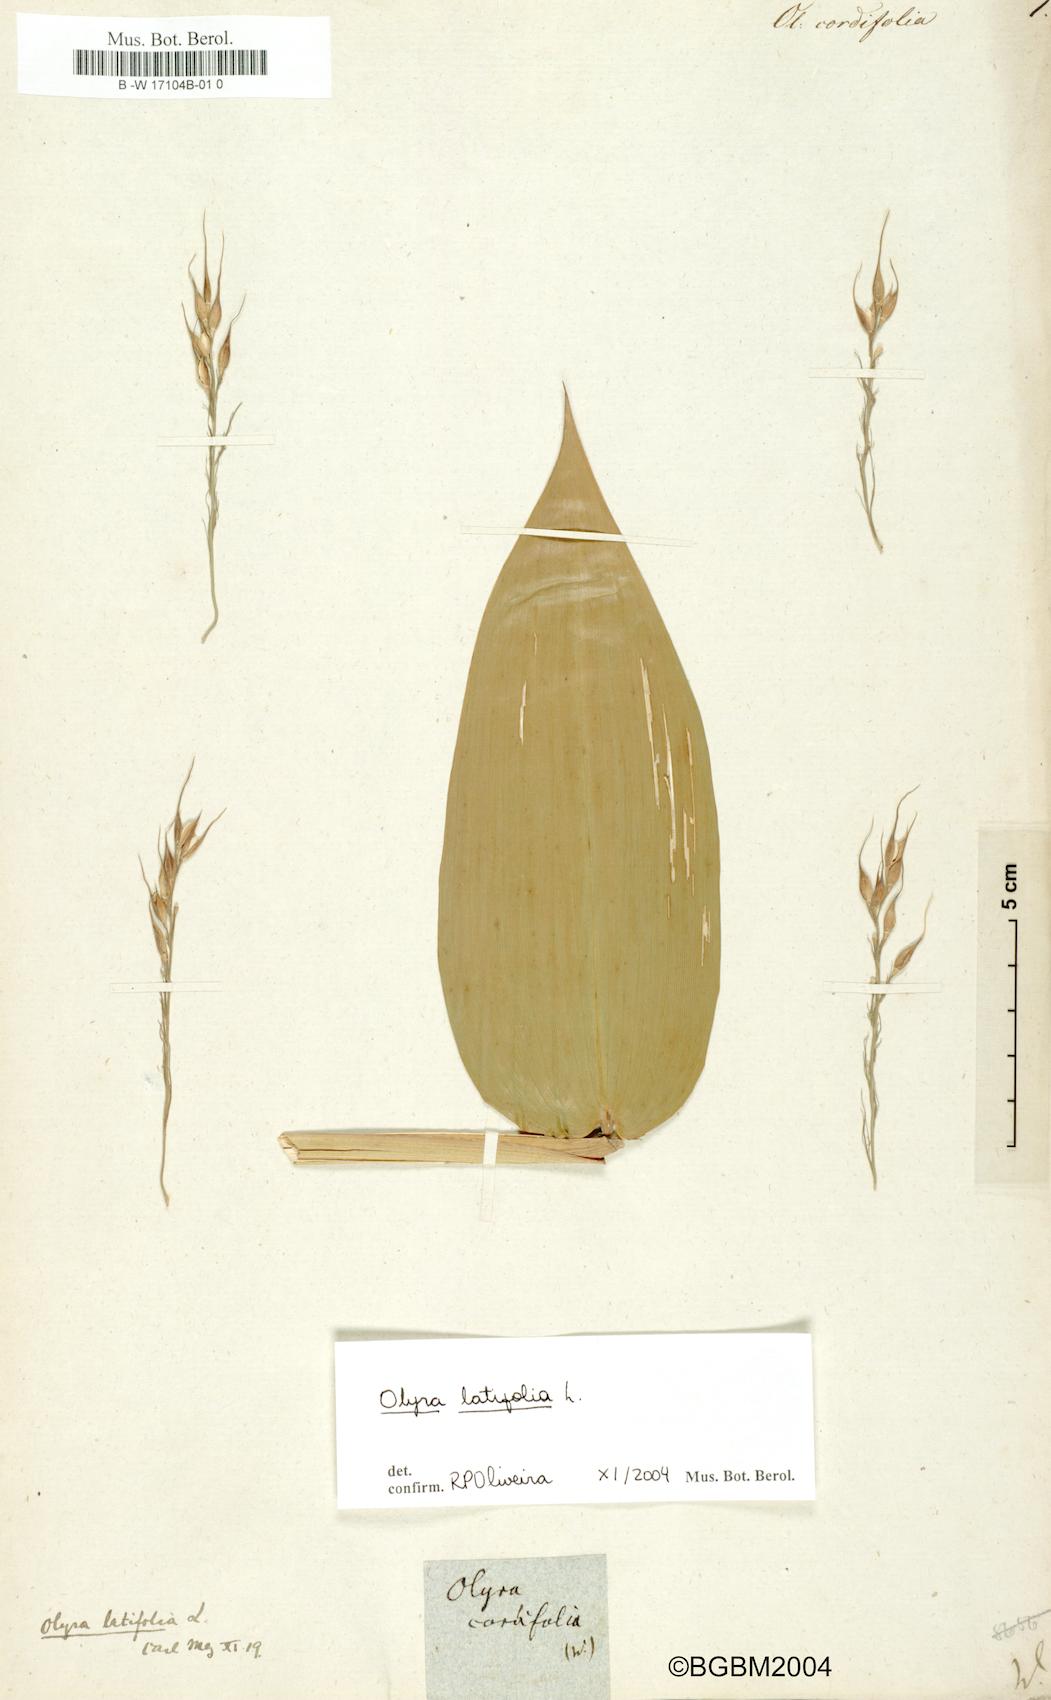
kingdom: Plantae
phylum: Tracheophyta
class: Liliopsida
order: Poales
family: Poaceae
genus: Olyra
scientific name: Olyra latifolia
